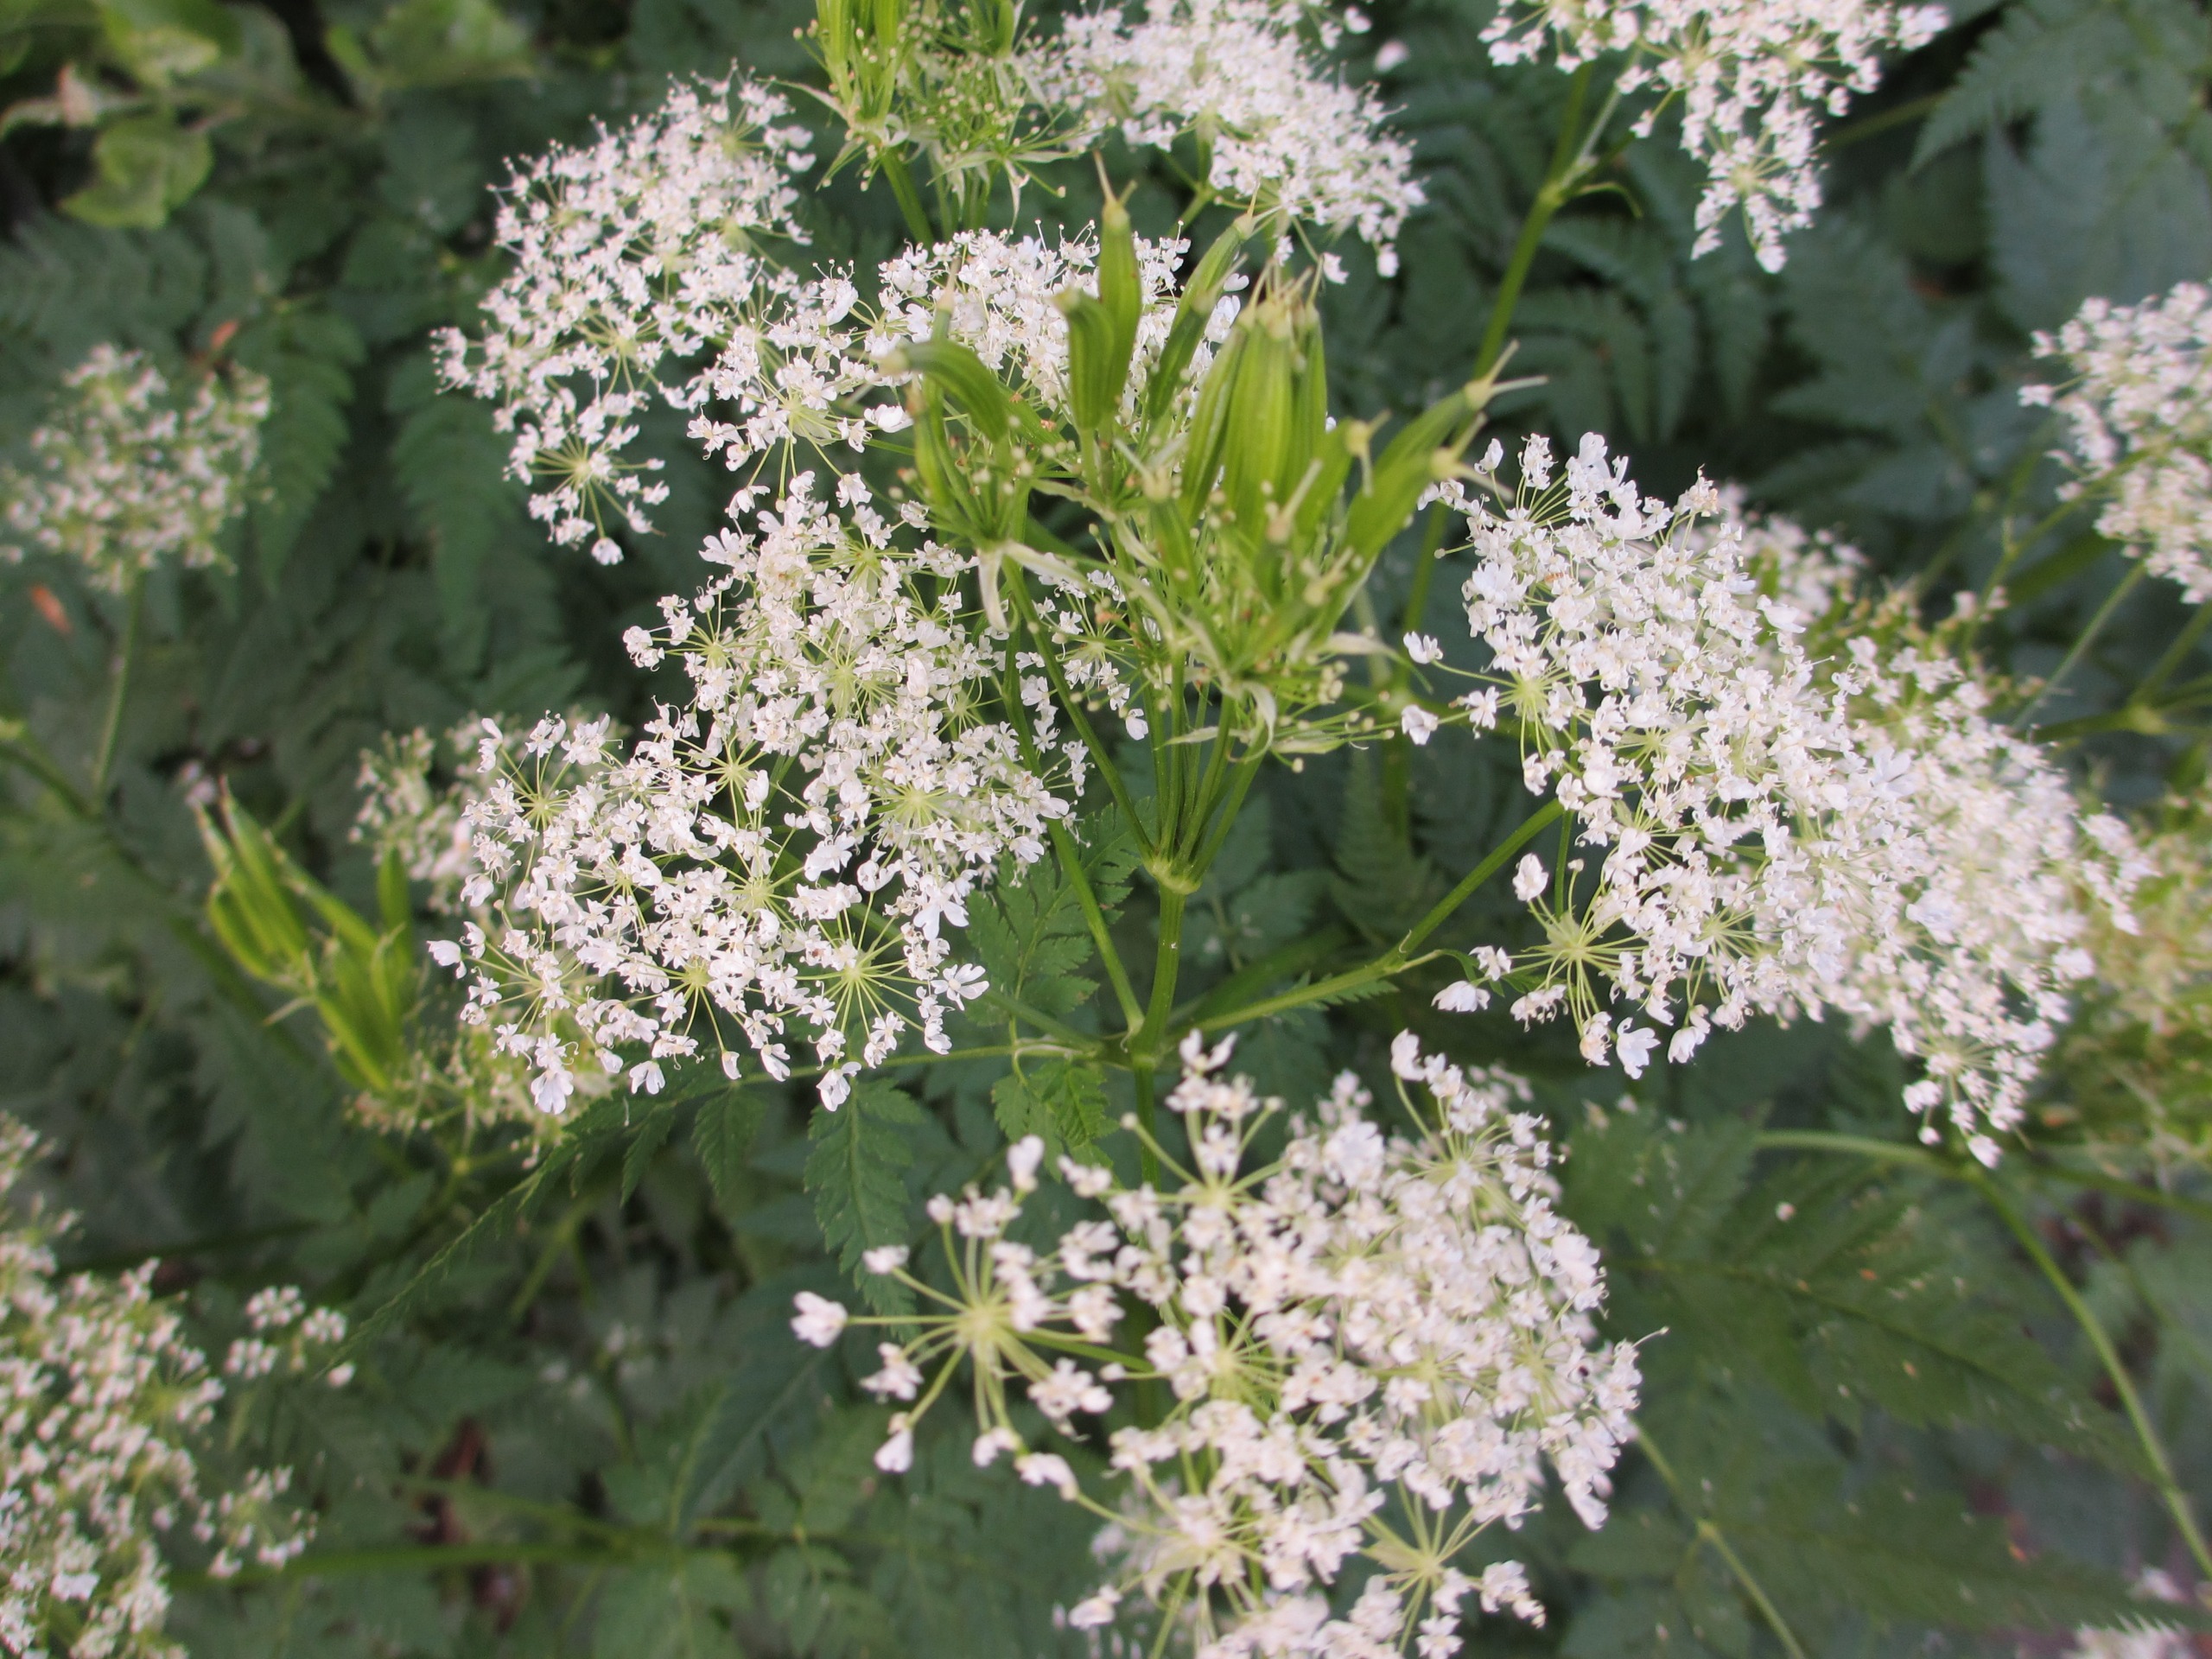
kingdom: Plantae
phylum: Tracheophyta
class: Magnoliopsida
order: Apiales
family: Apiaceae
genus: Myrrhis
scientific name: Myrrhis odorata
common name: Sødskærm
